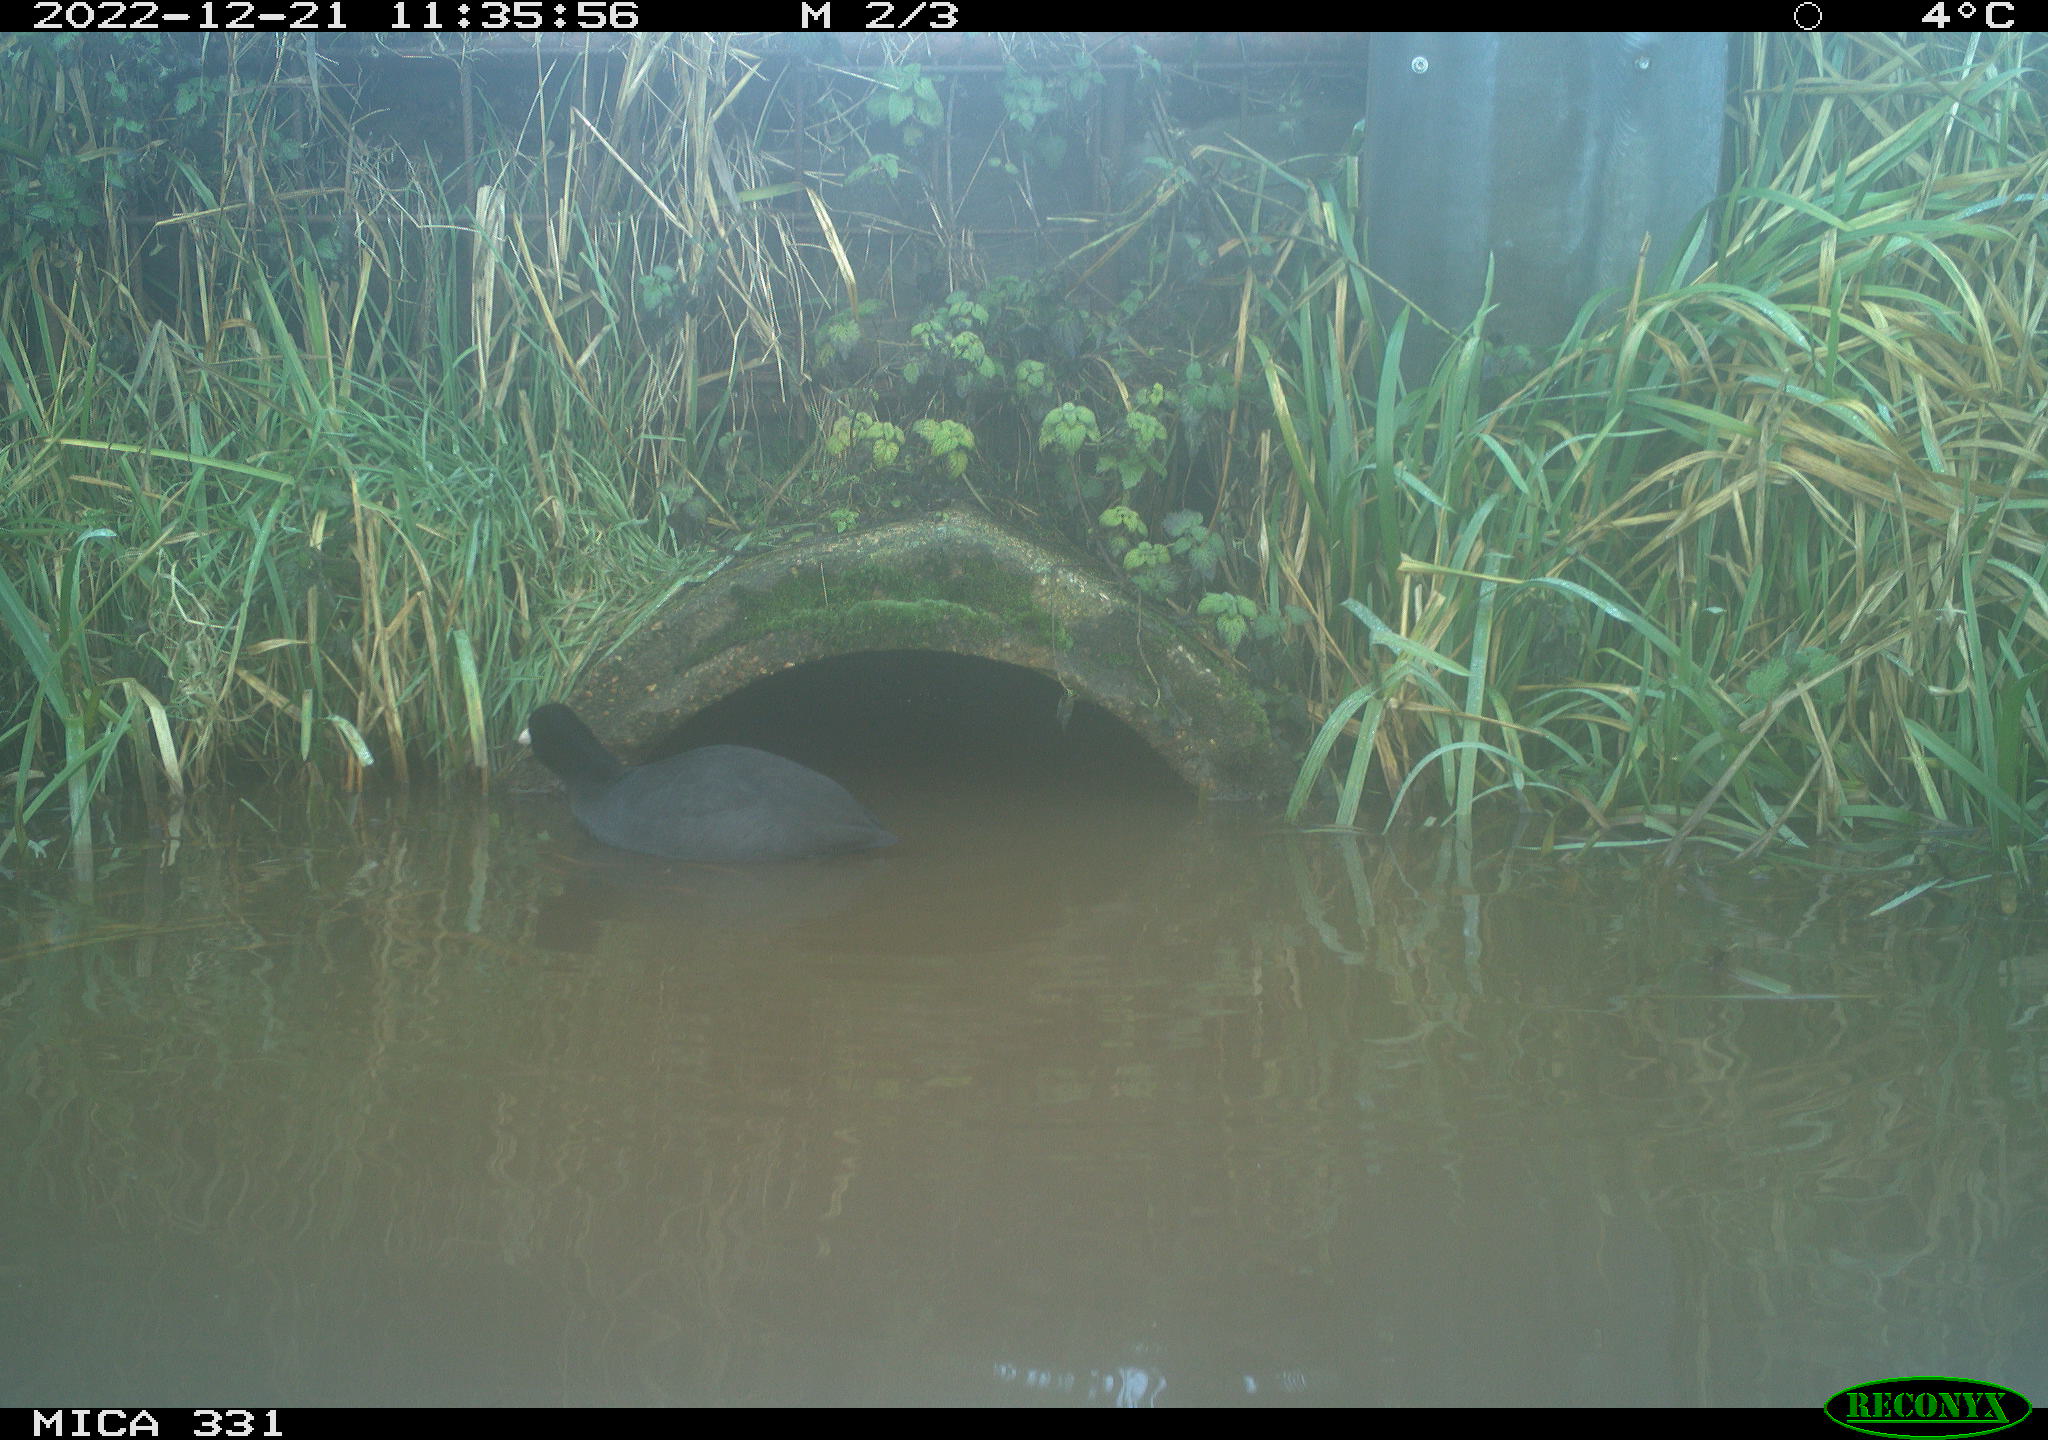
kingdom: Animalia
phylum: Chordata
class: Aves
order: Gruiformes
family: Rallidae
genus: Fulica
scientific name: Fulica atra
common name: Eurasian coot
